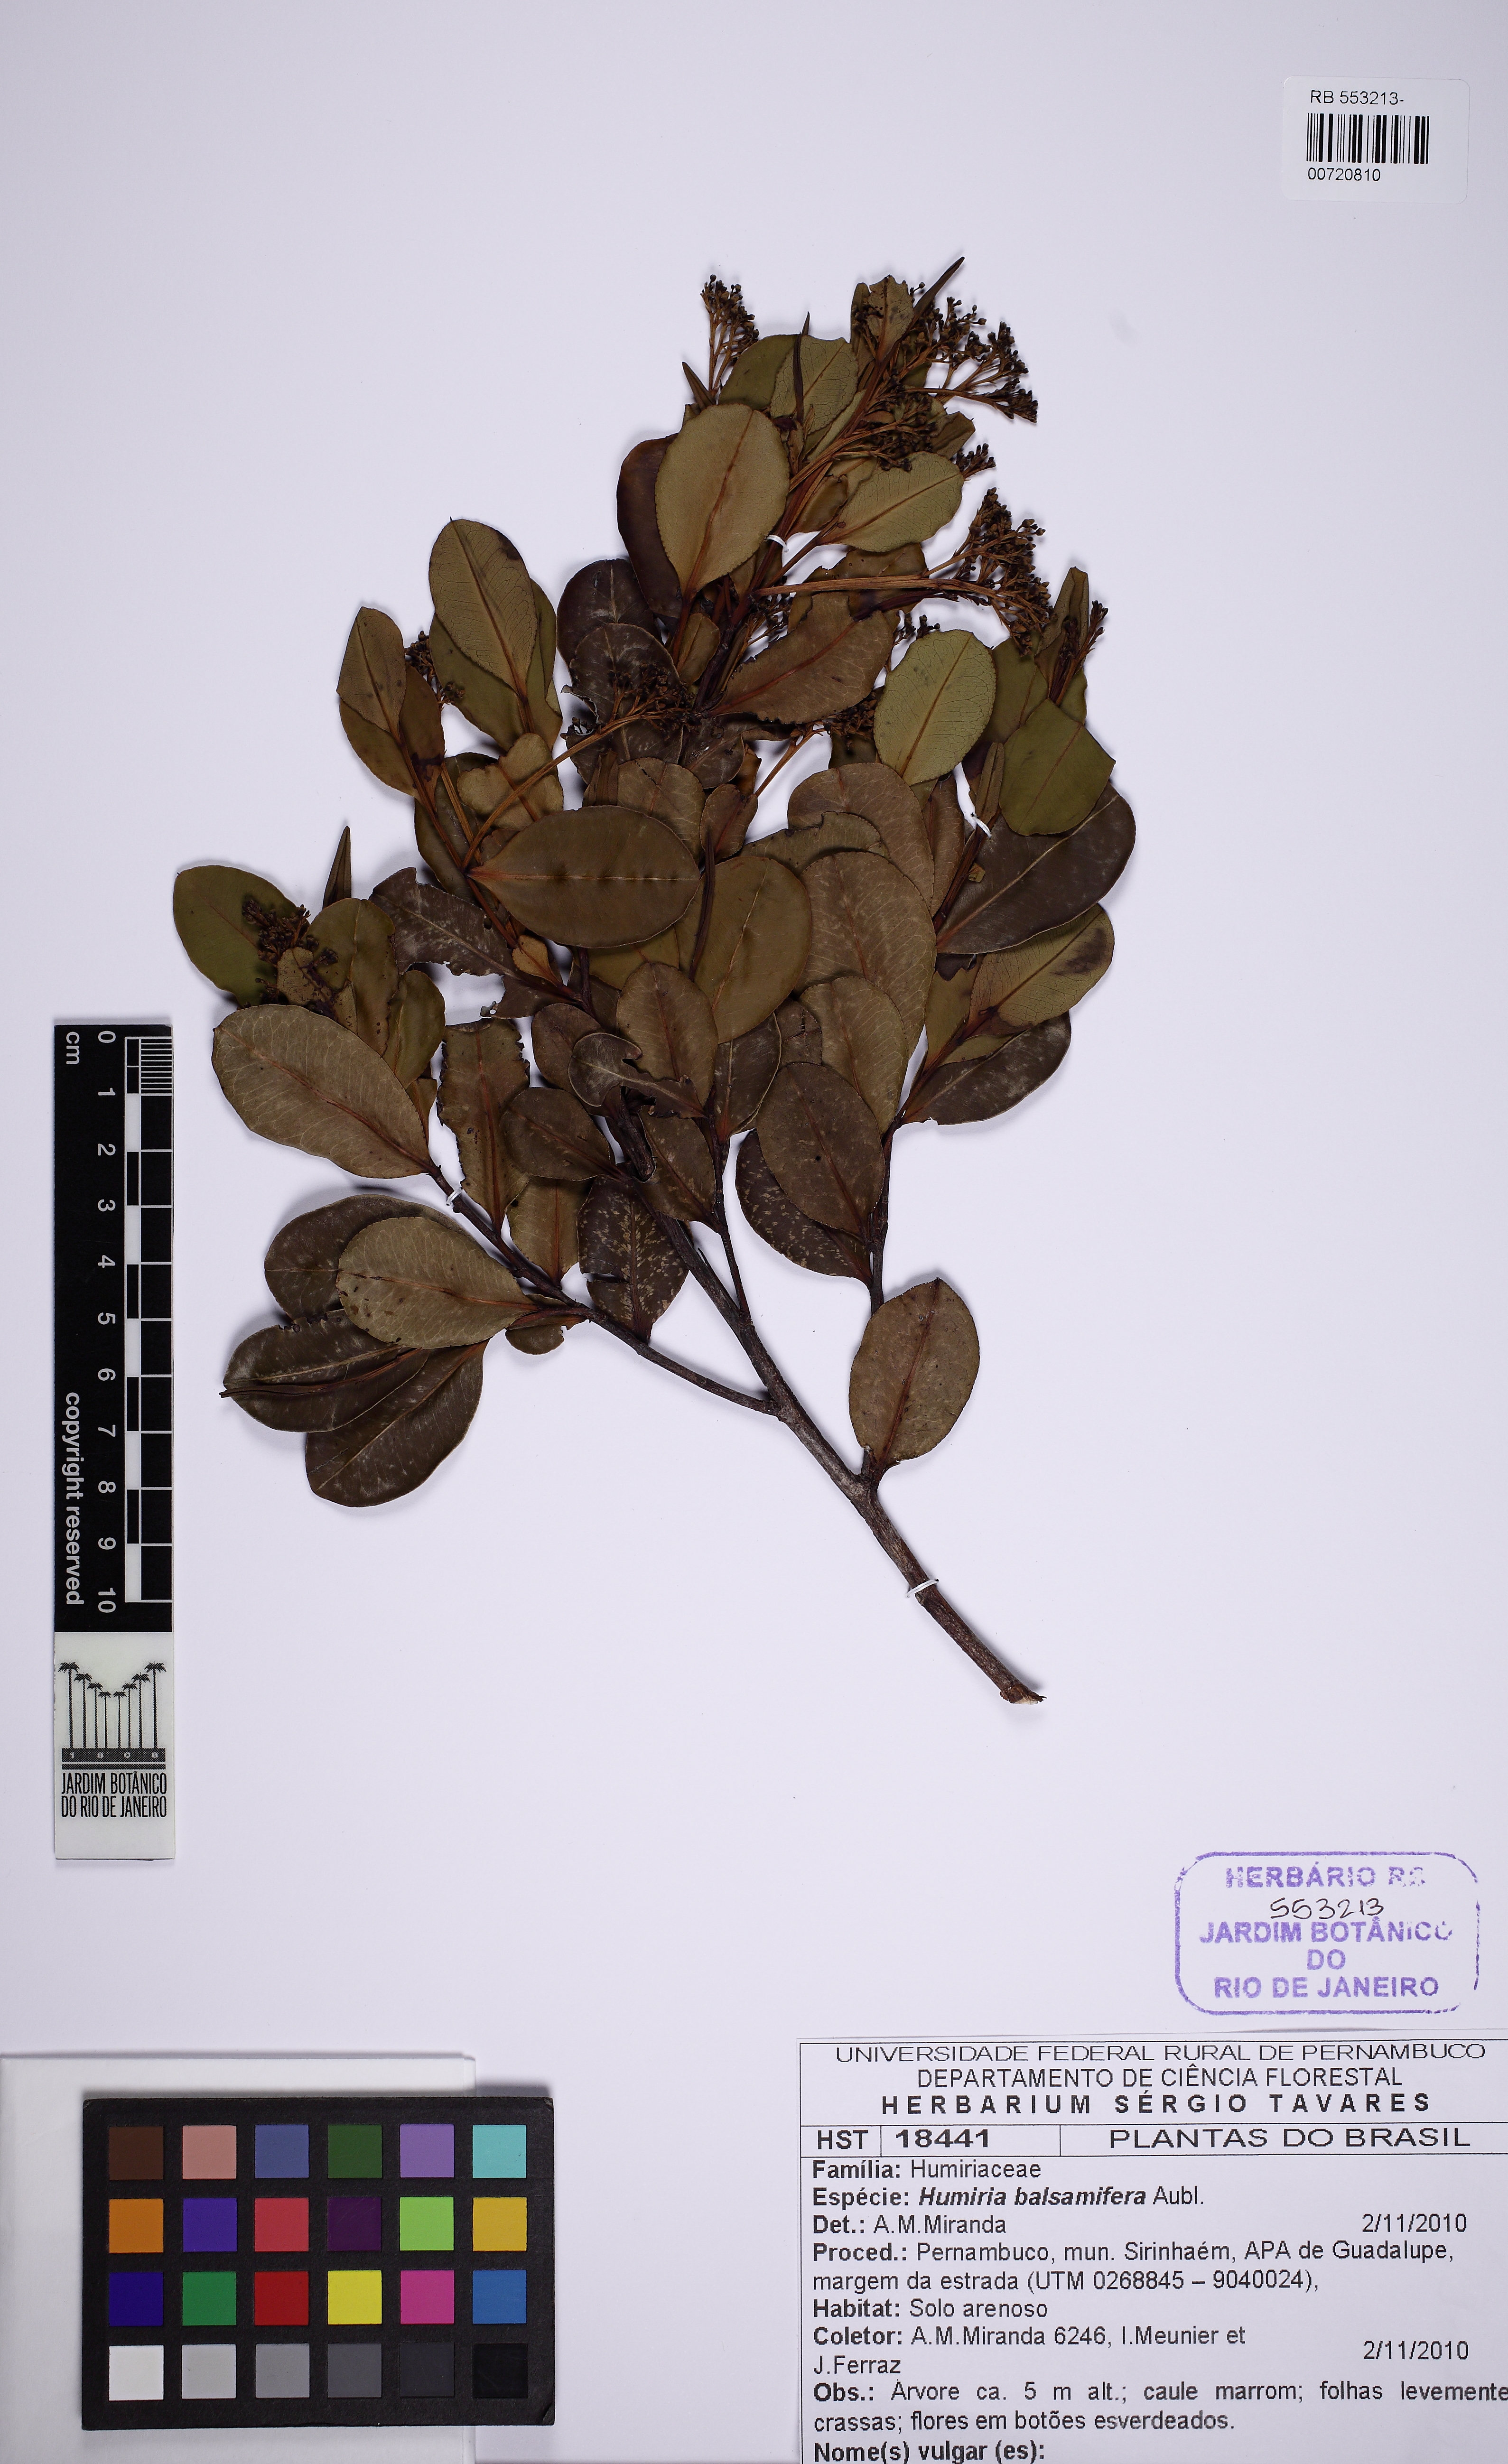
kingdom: Plantae
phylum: Tracheophyta
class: Magnoliopsida
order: Malpighiales
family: Humiriaceae
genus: Humiria
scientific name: Humiria balsamifera
